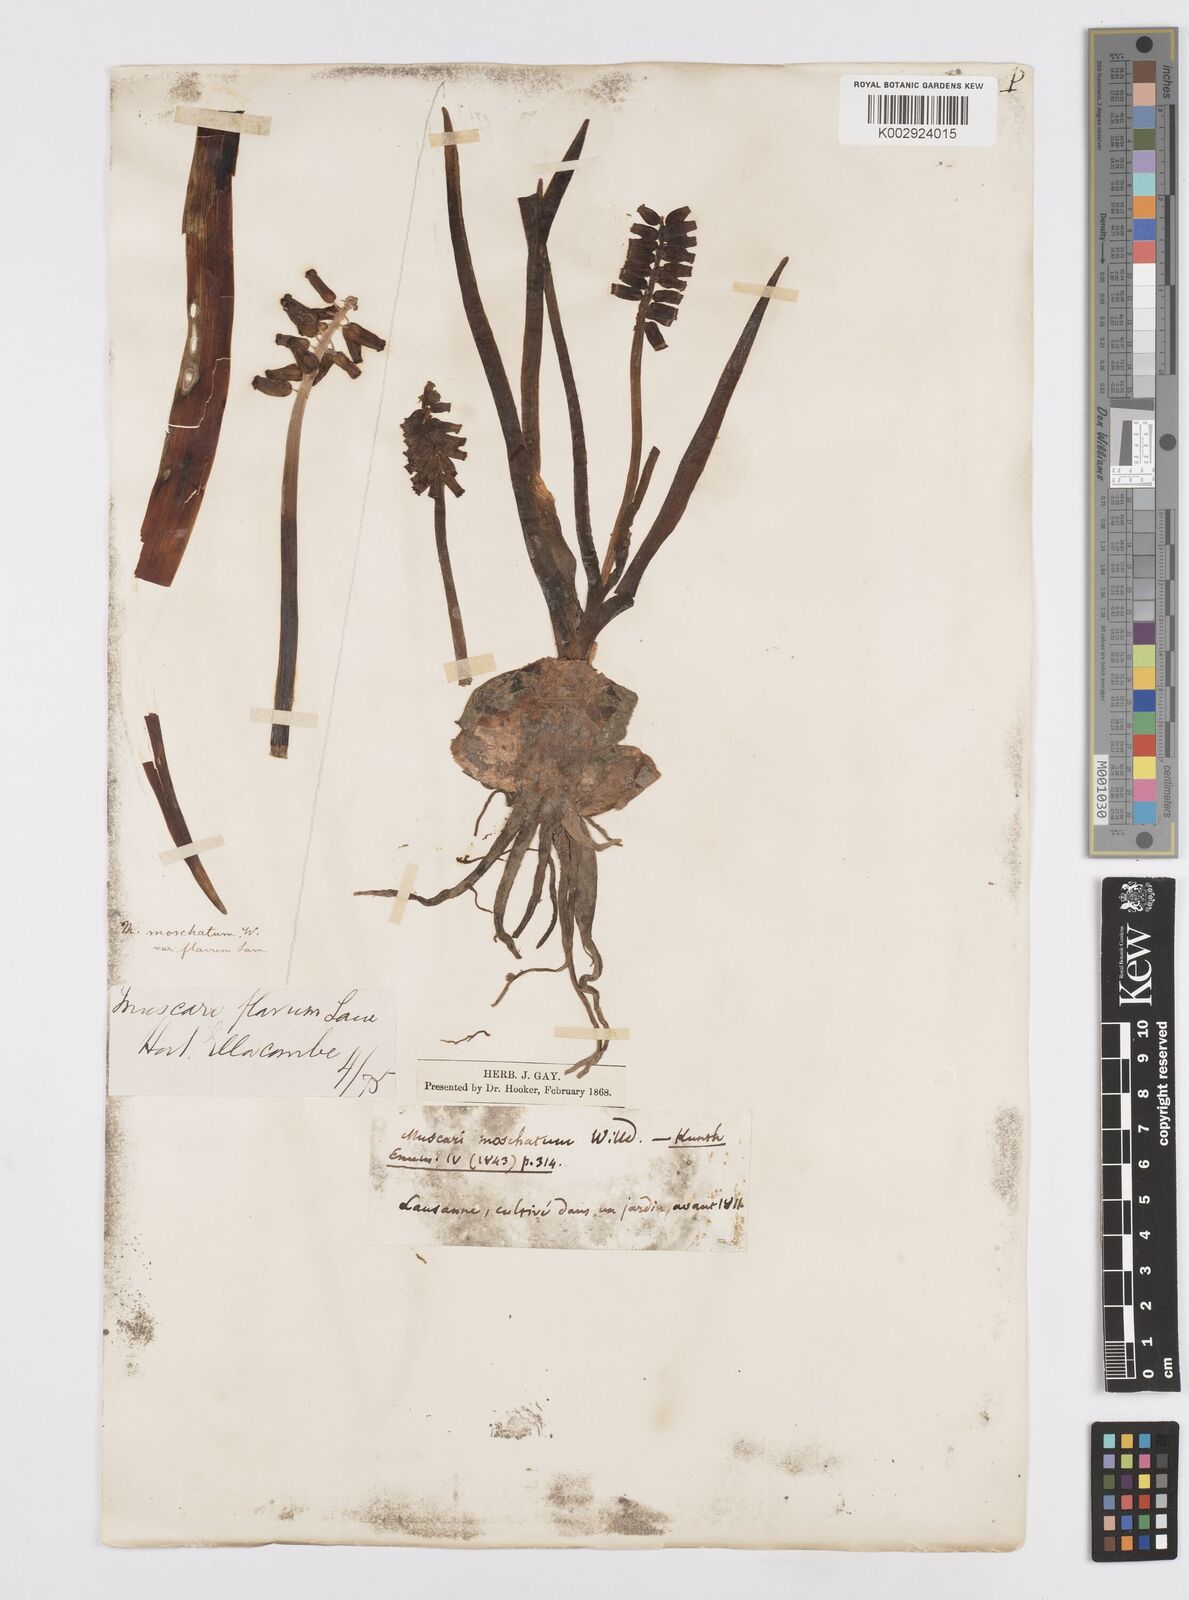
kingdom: Plantae
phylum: Tracheophyta
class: Liliopsida
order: Asparagales
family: Asparagaceae
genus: Muscarimia
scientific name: Muscarimia muscari
